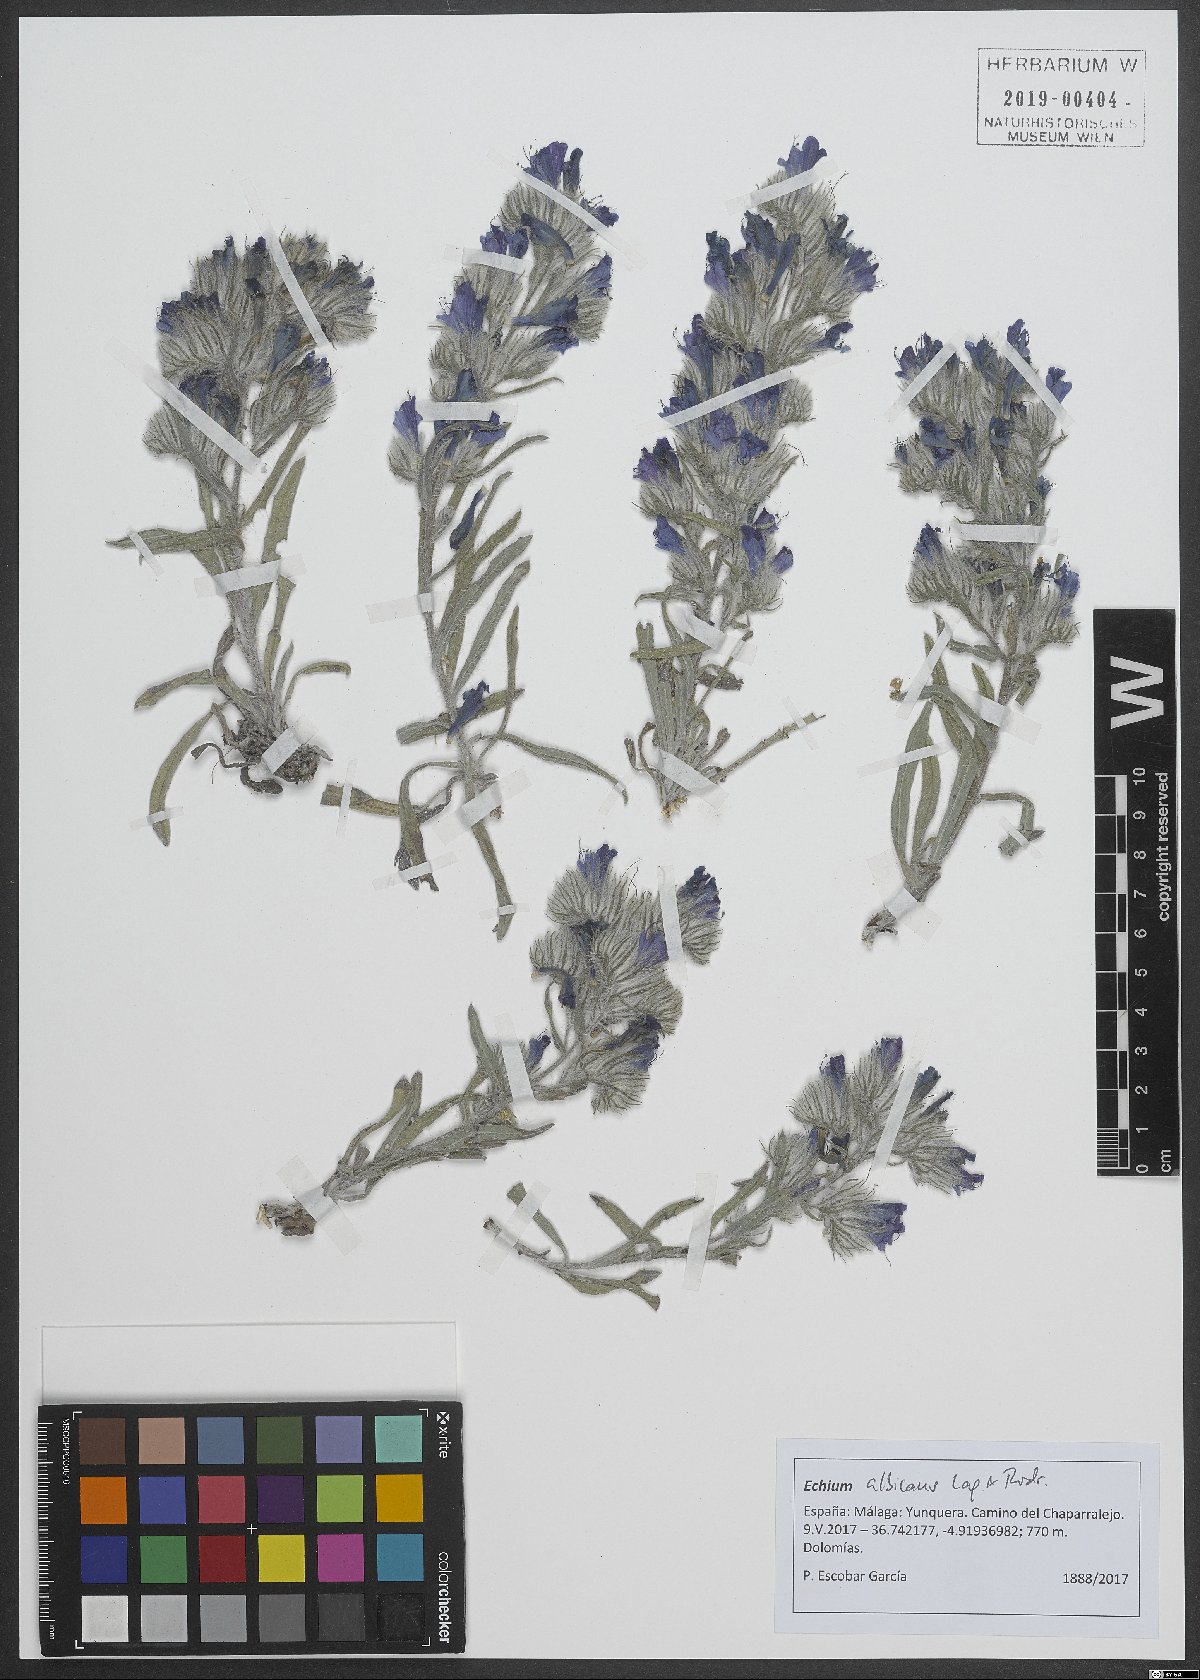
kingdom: Plantae
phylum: Tracheophyta
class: Magnoliopsida
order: Boraginales
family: Boraginaceae
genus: Echium
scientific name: Echium albicans
